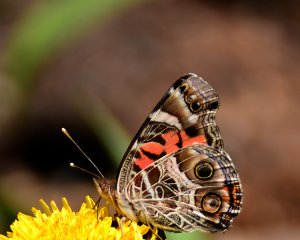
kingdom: Animalia
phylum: Arthropoda
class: Insecta
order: Lepidoptera
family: Nymphalidae
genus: Vanessa
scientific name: Vanessa virginiensis
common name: American Lady
